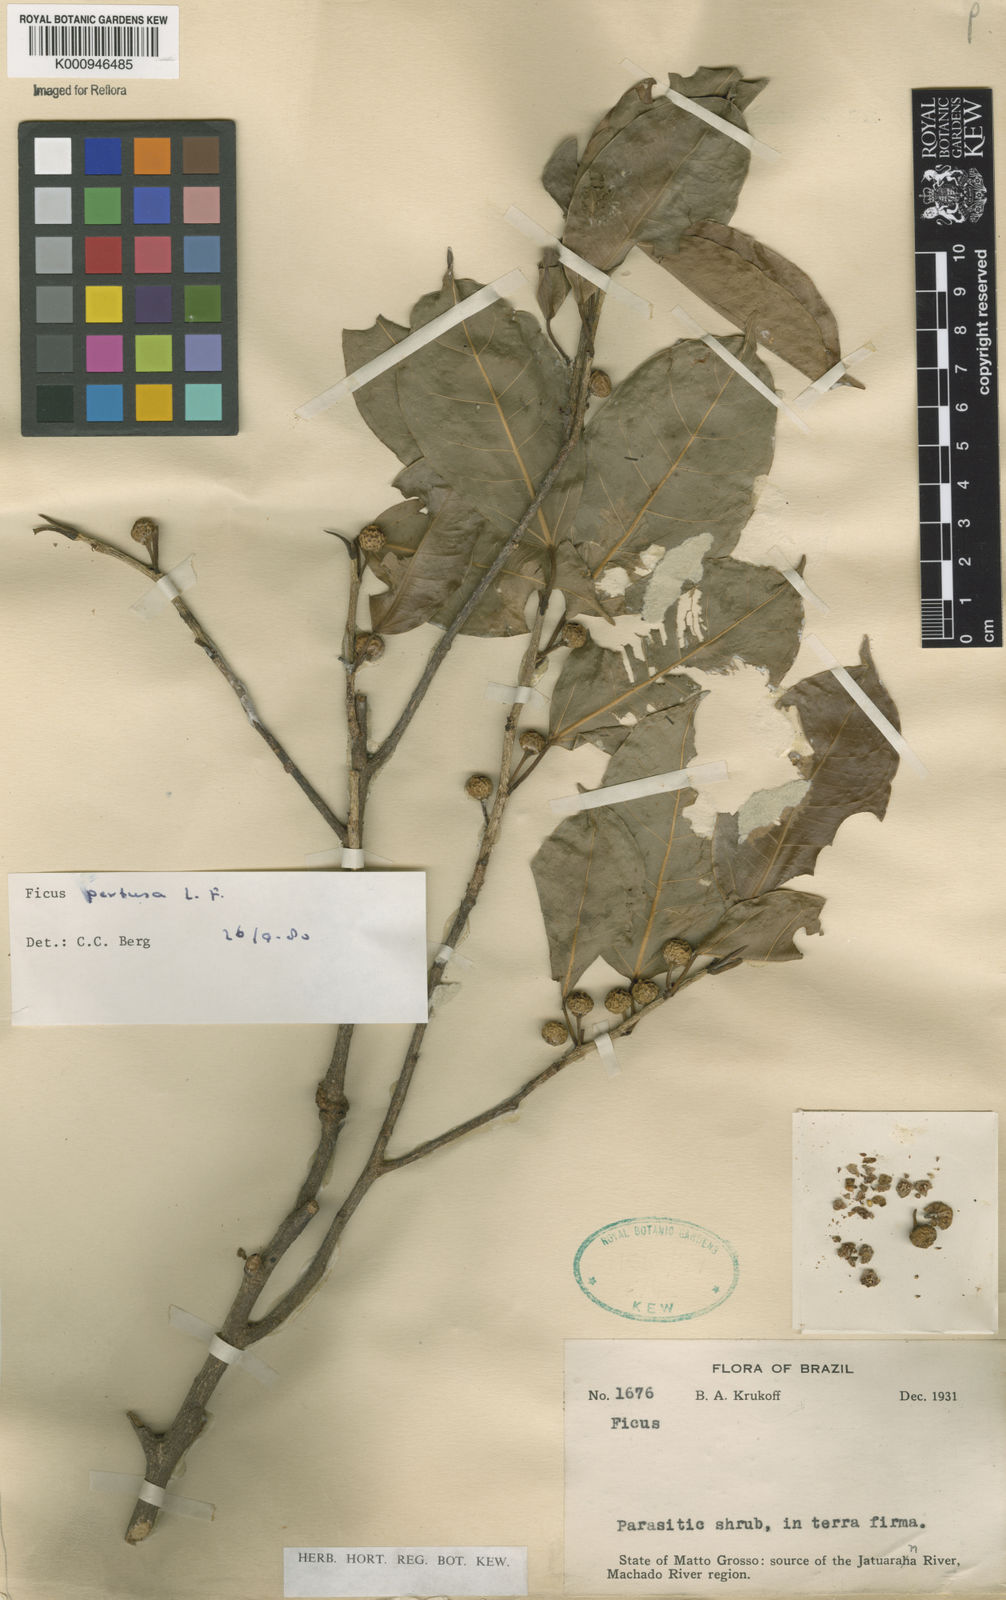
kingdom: Plantae
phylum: Tracheophyta
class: Magnoliopsida
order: Rosales
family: Moraceae
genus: Ficus
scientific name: Ficus pertusa
